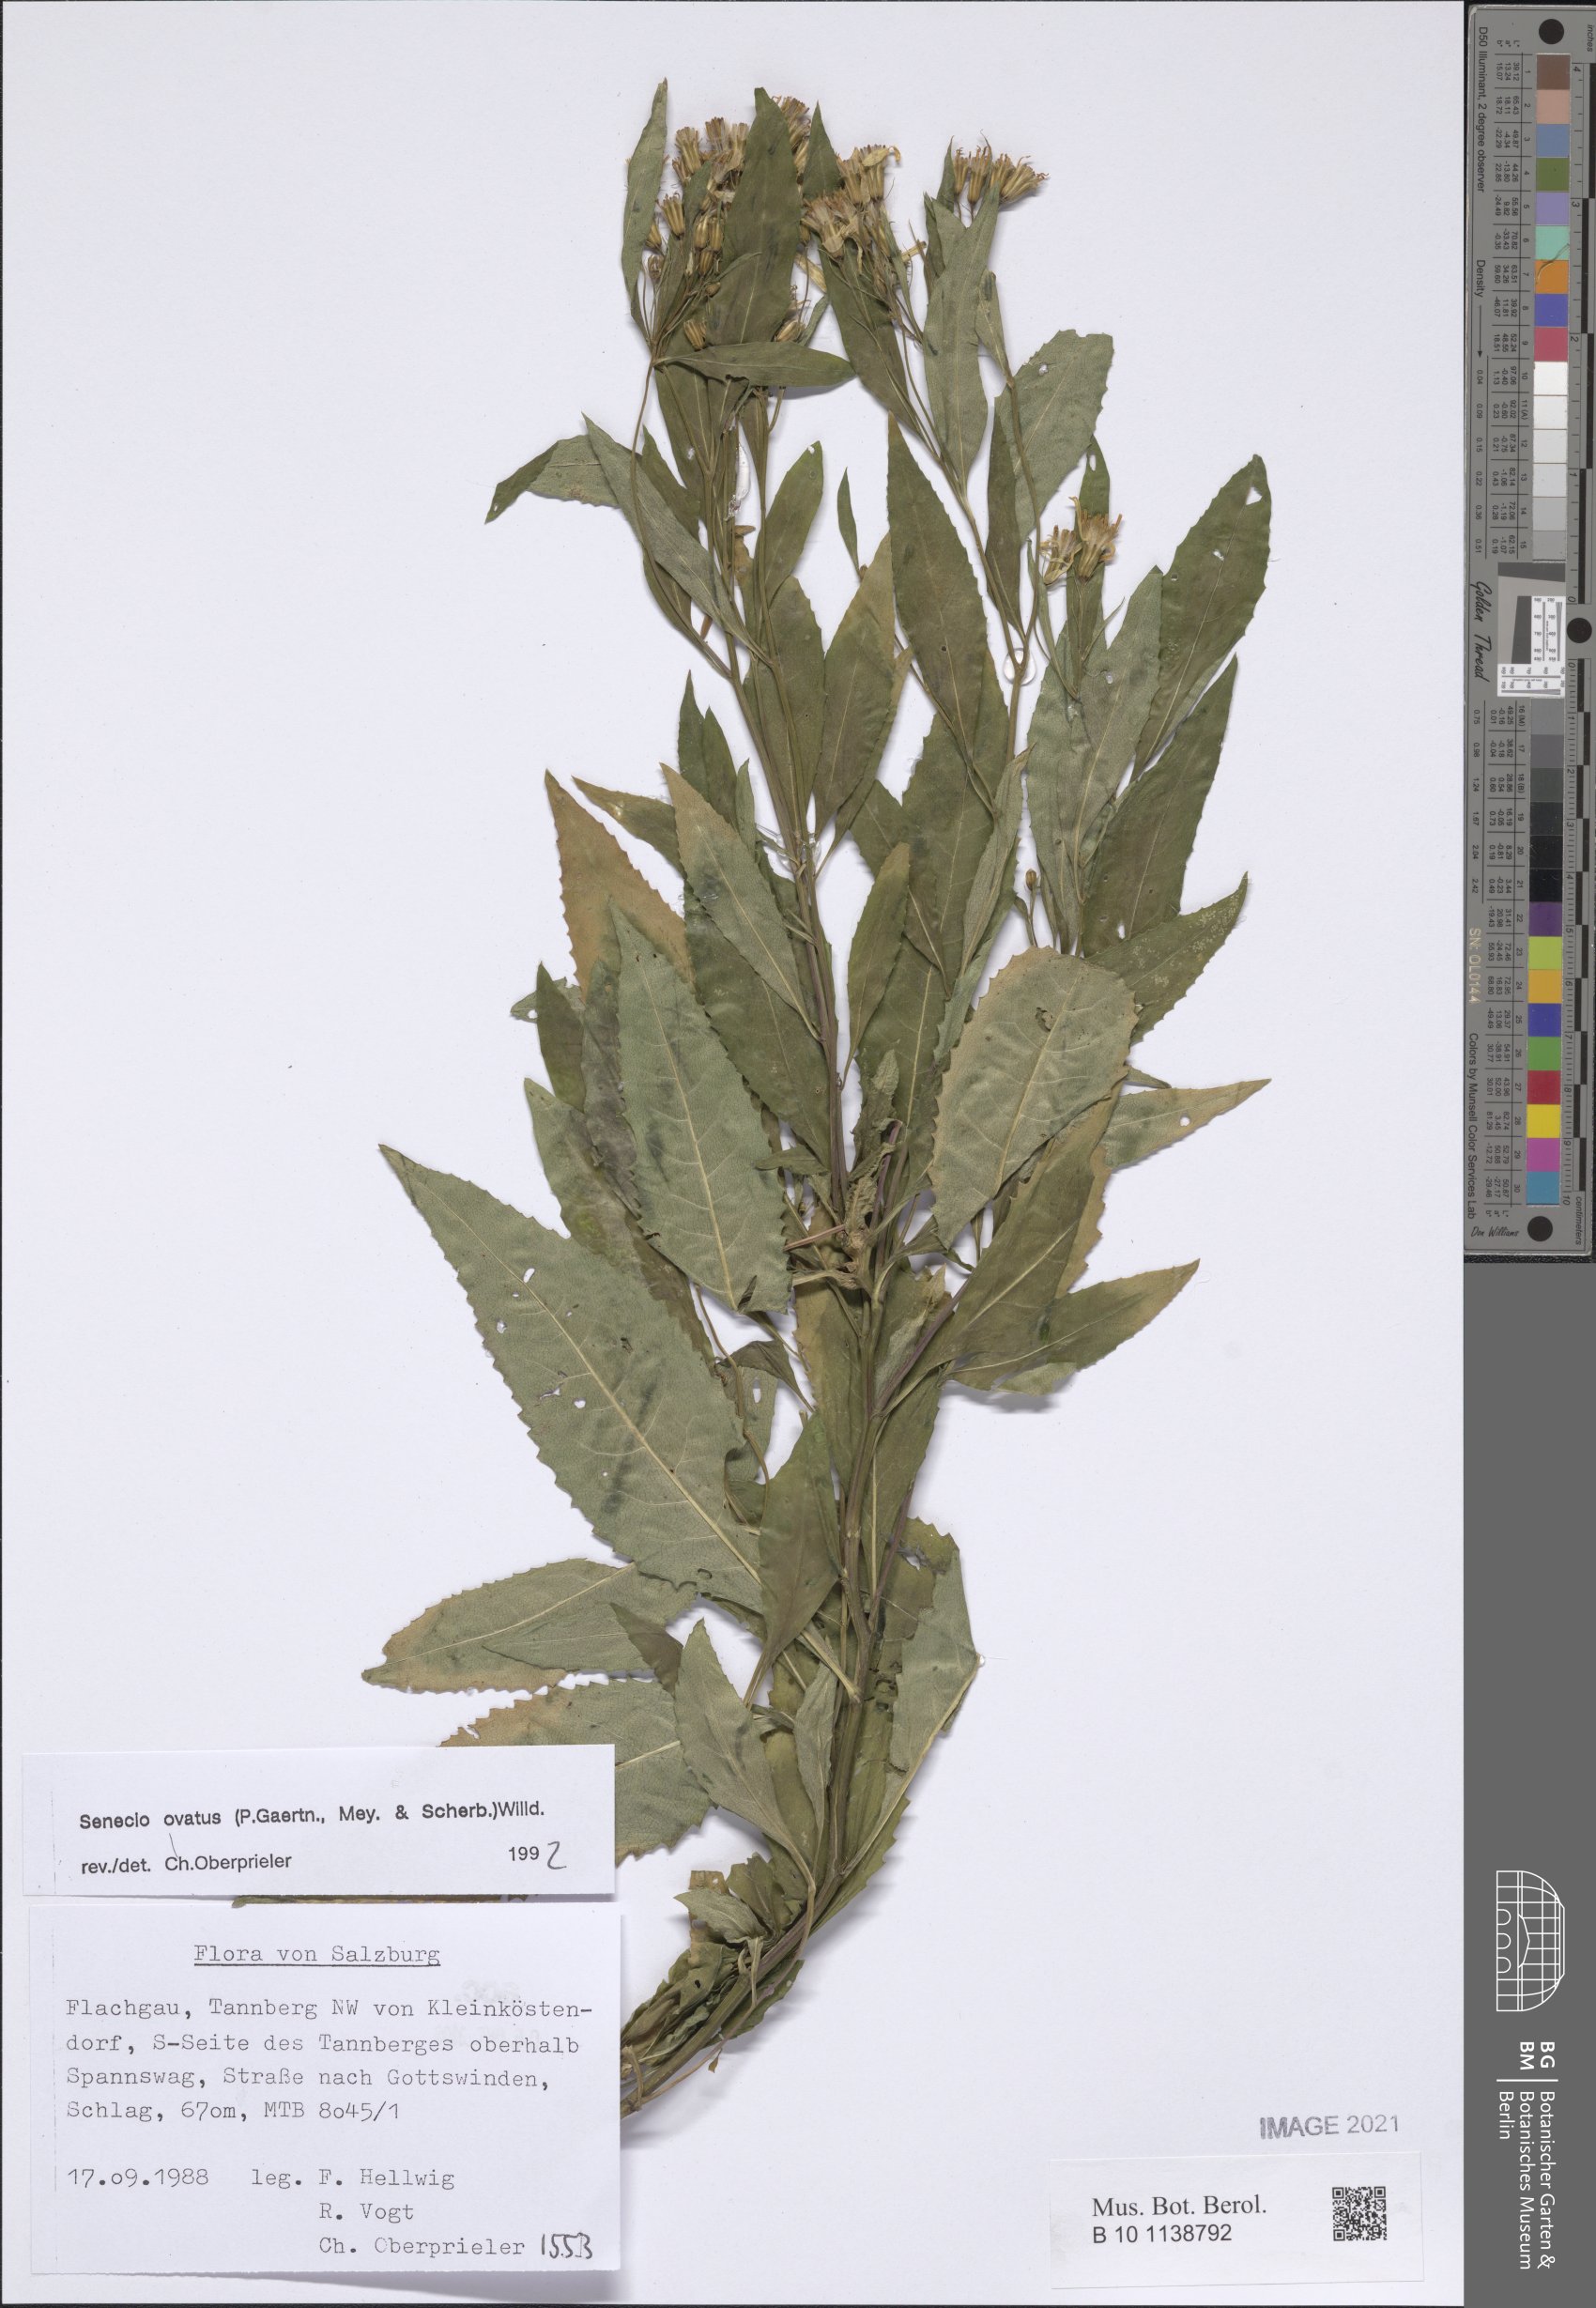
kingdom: Plantae
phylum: Tracheophyta
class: Magnoliopsida
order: Asterales
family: Asteraceae
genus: Senecio
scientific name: Senecio ovatus
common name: Wood ragwort
